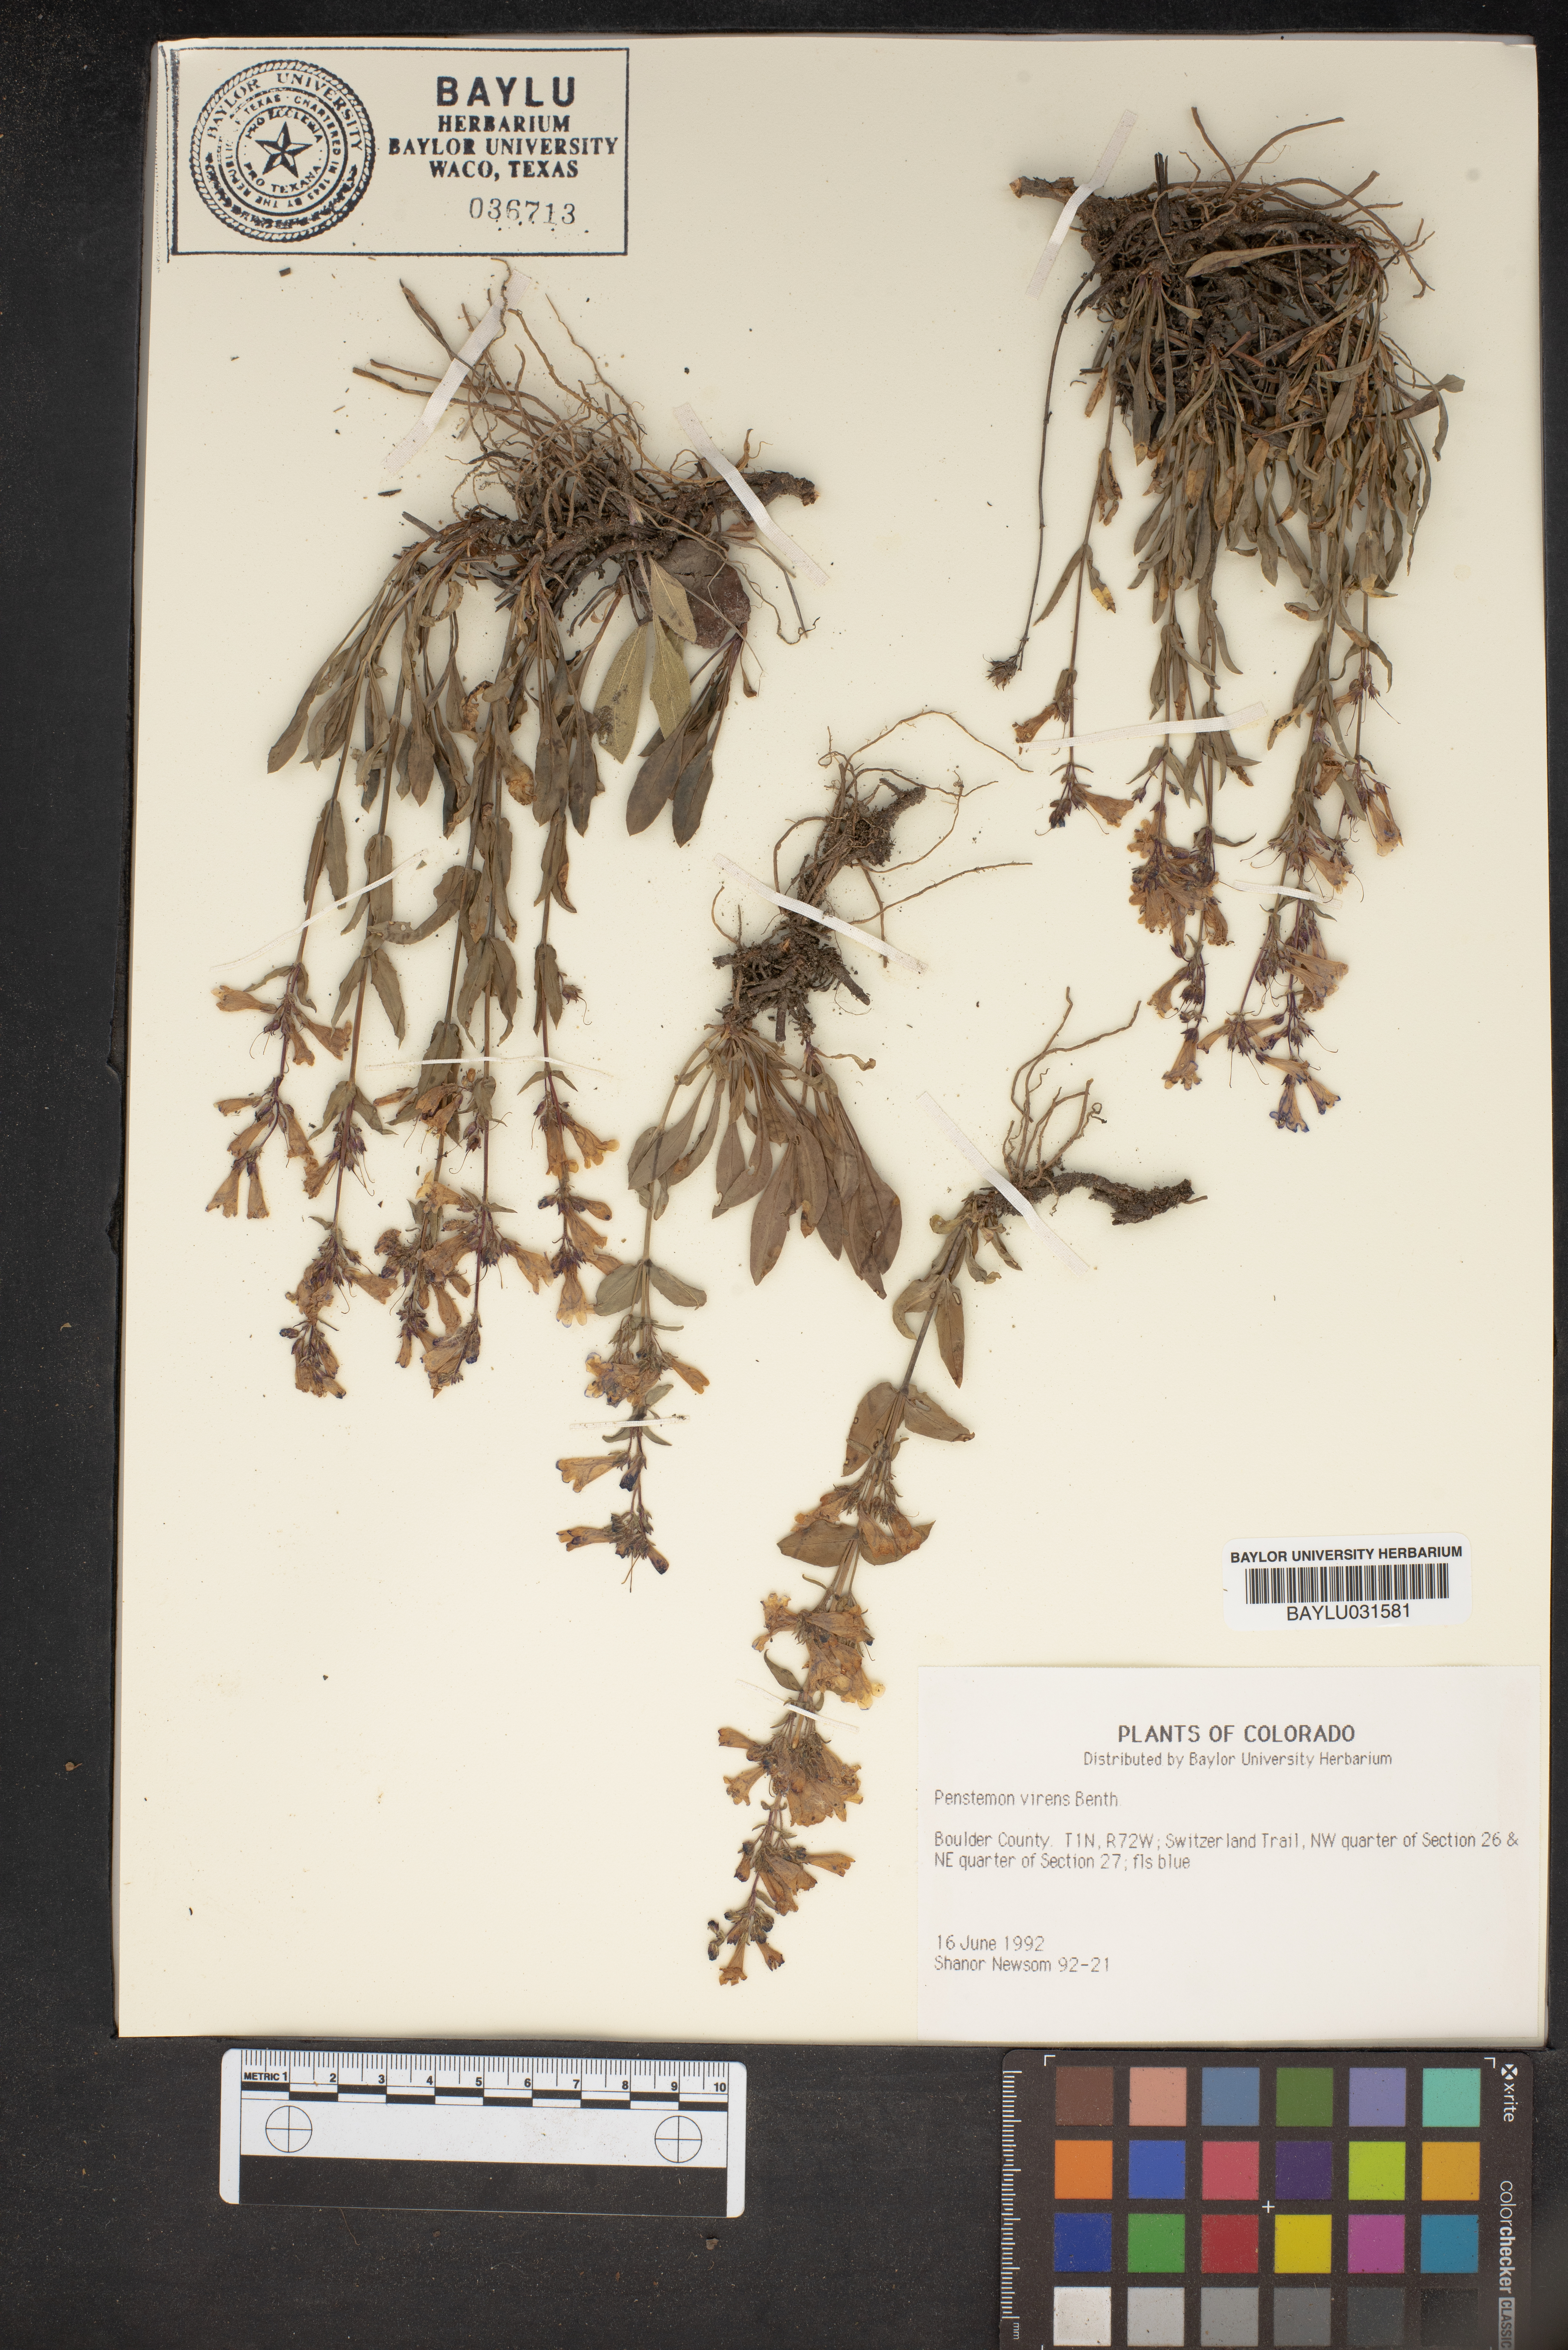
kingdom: Plantae
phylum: Tracheophyta
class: Magnoliopsida
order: Lamiales
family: Plantaginaceae
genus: Penstemon
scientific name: Penstemon virens
